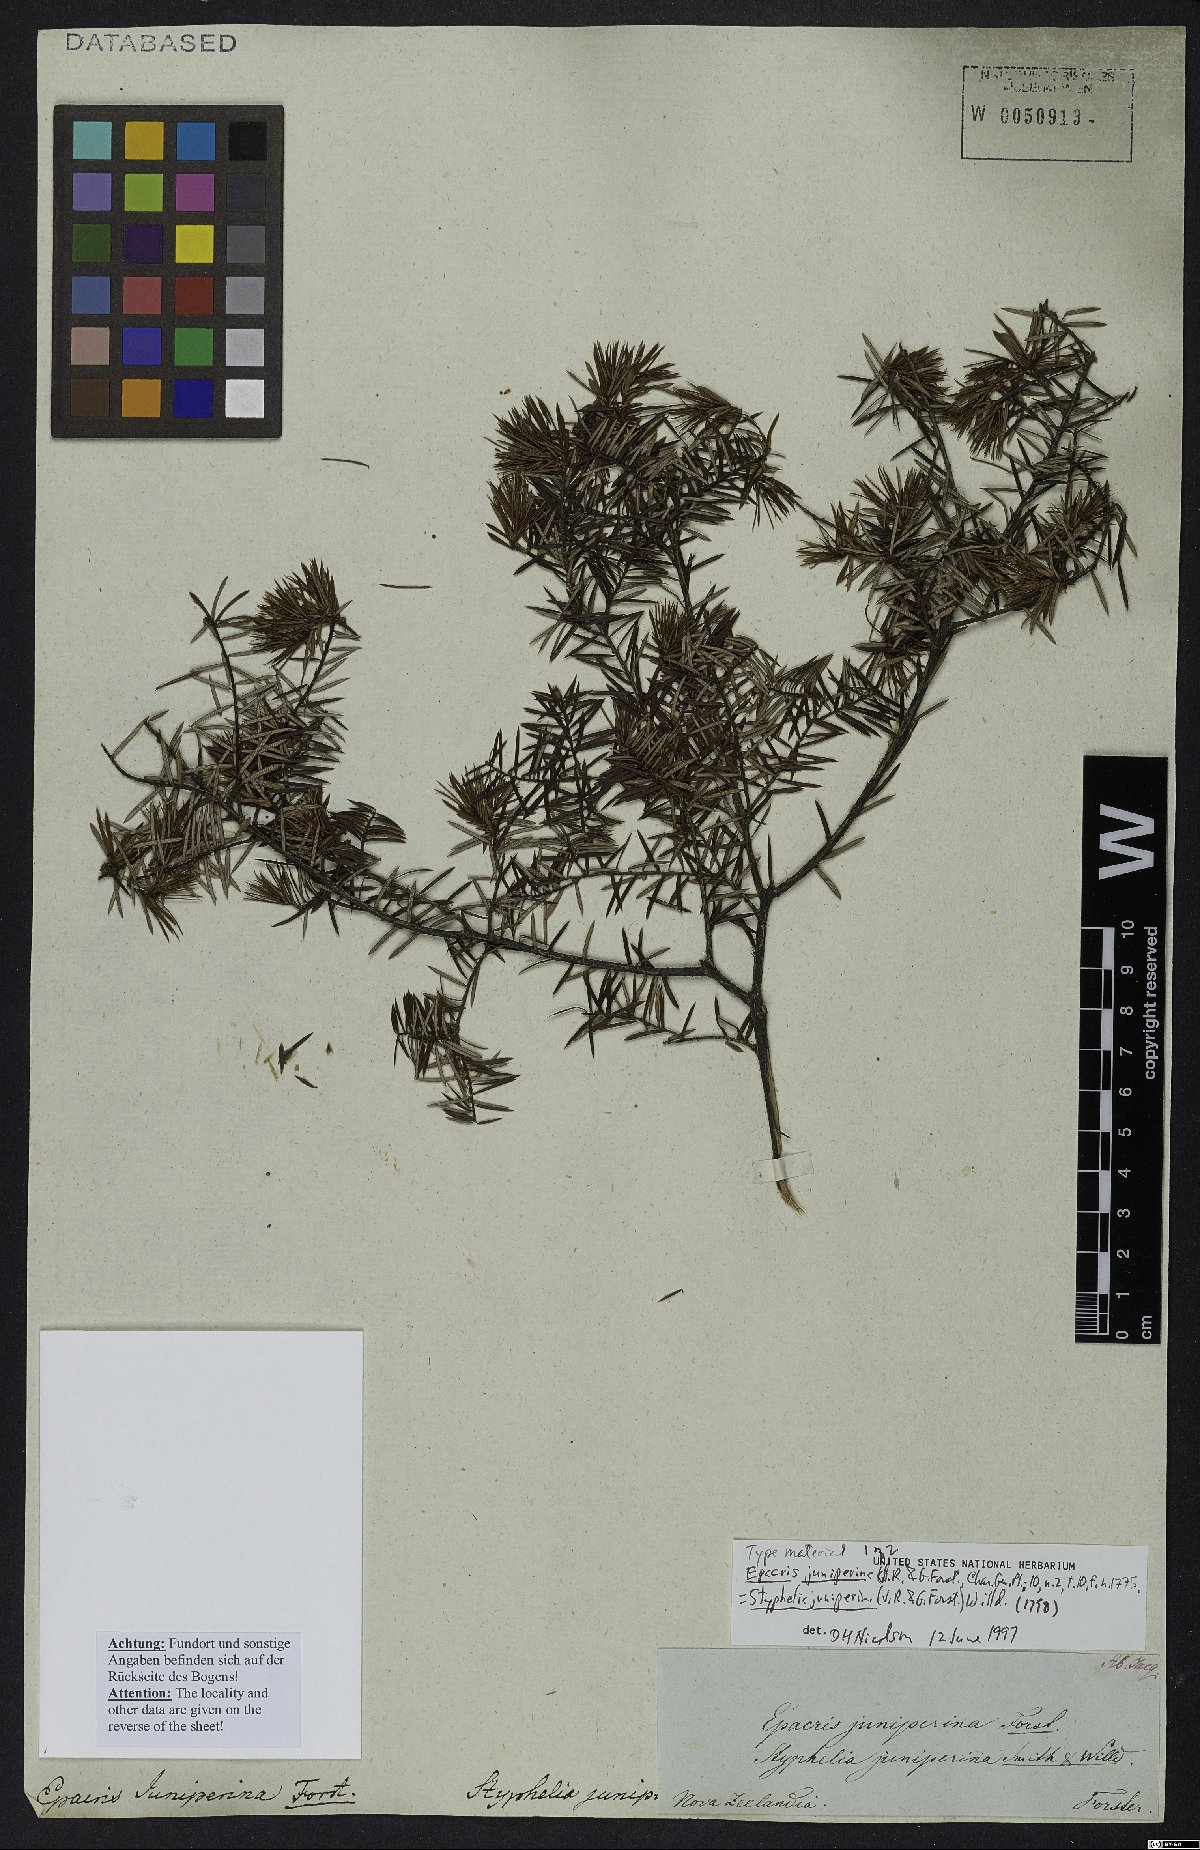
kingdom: Plantae
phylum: Tracheophyta
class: Magnoliopsida
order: Ericales
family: Ericaceae
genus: Leptecophylla
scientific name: Leptecophylla juniperina
